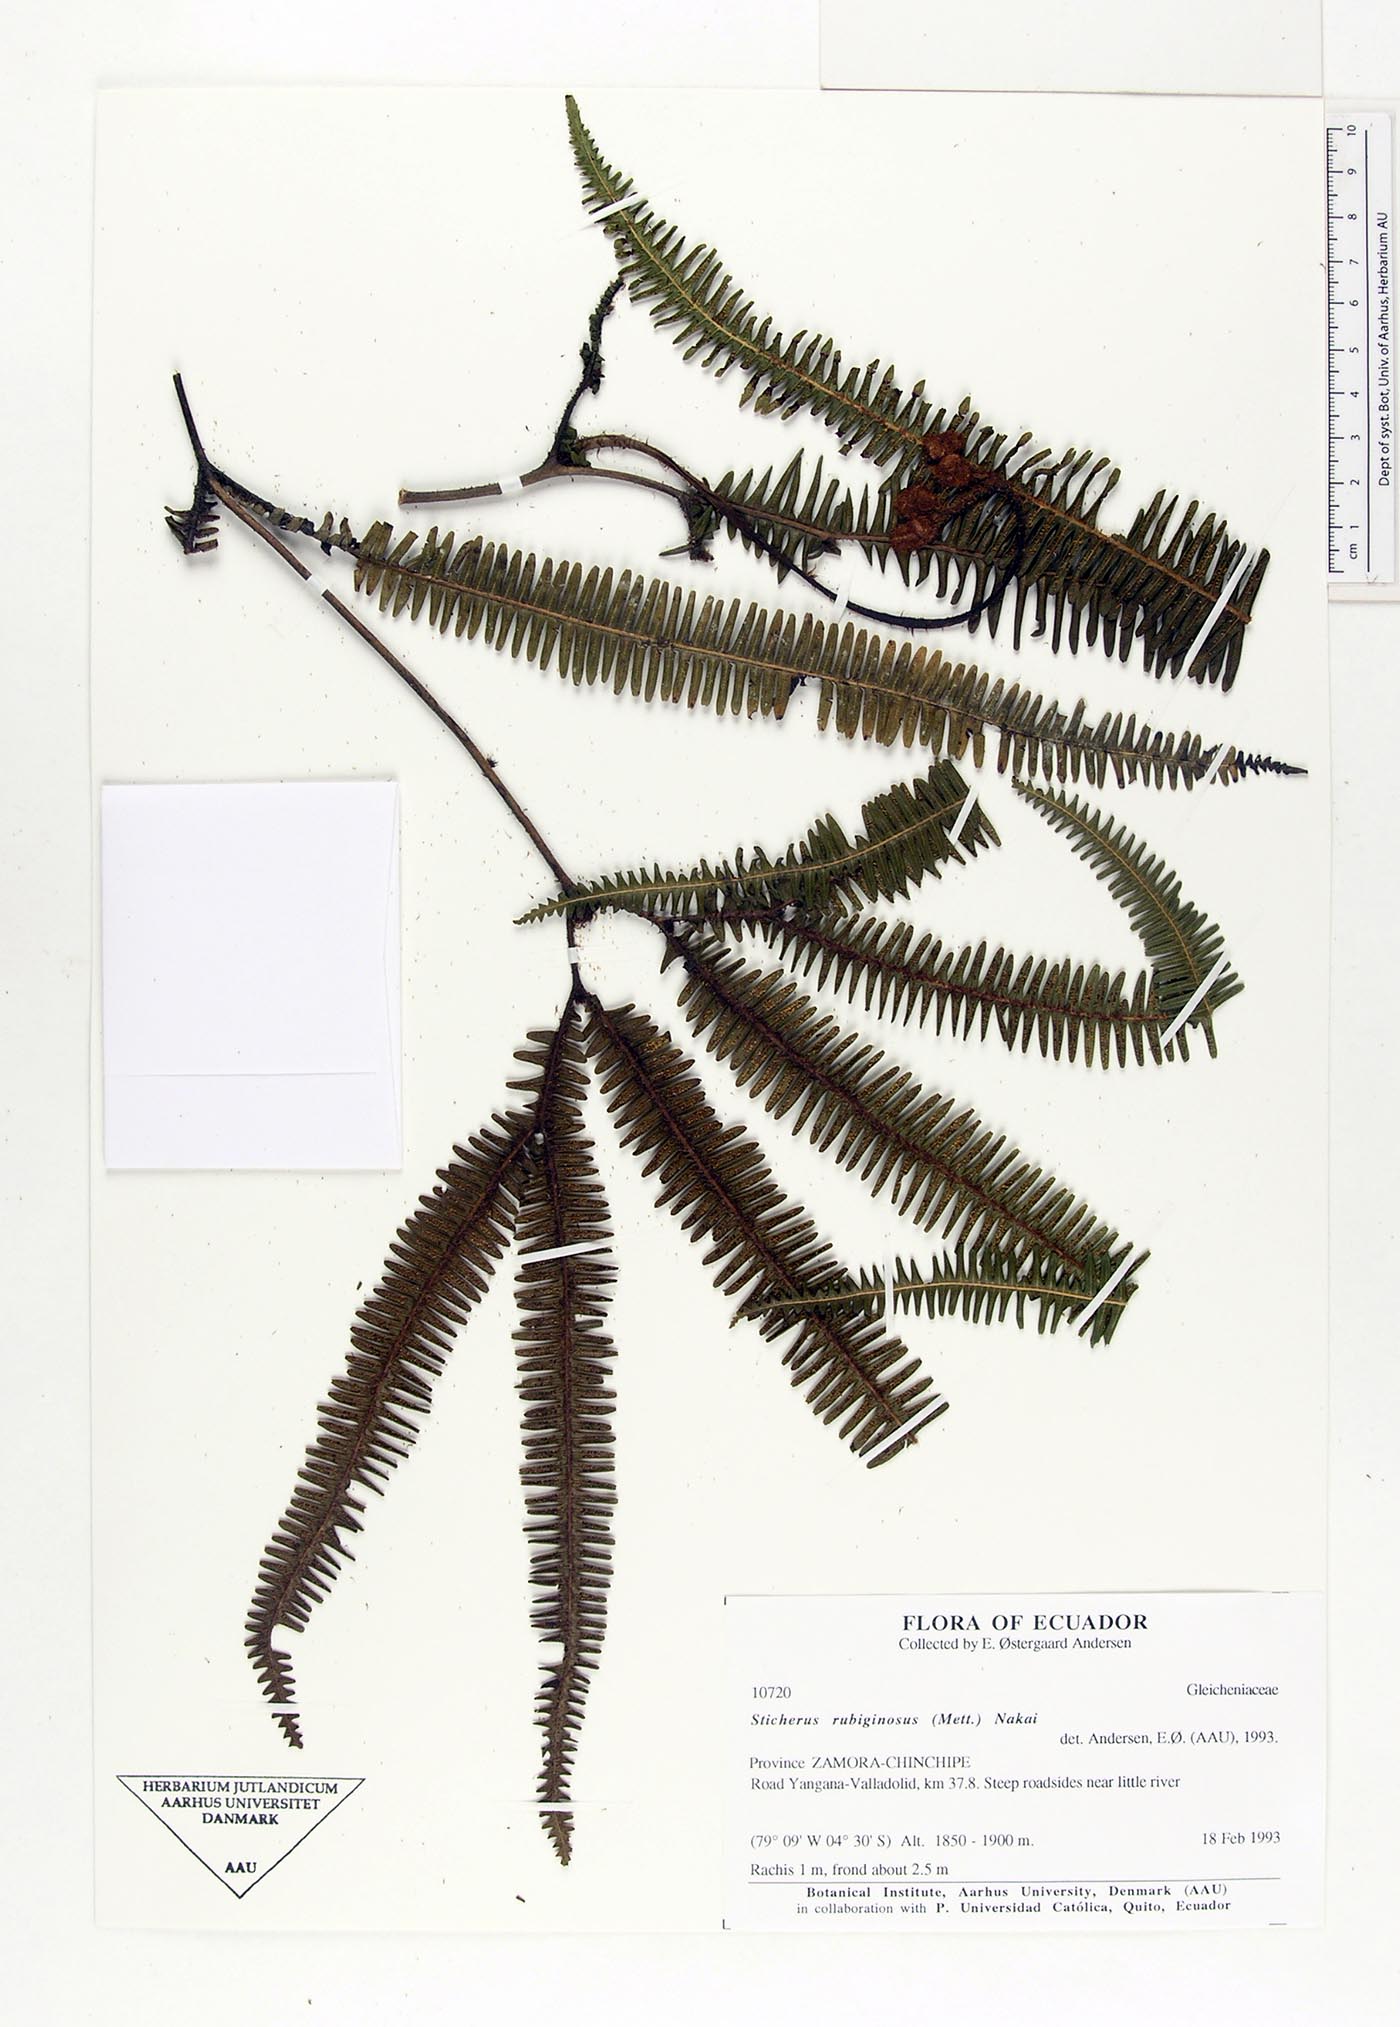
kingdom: Plantae
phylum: Tracheophyta
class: Polypodiopsida
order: Gleicheniales
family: Gleicheniaceae
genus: Sticherus
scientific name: Sticherus rubiginosus
